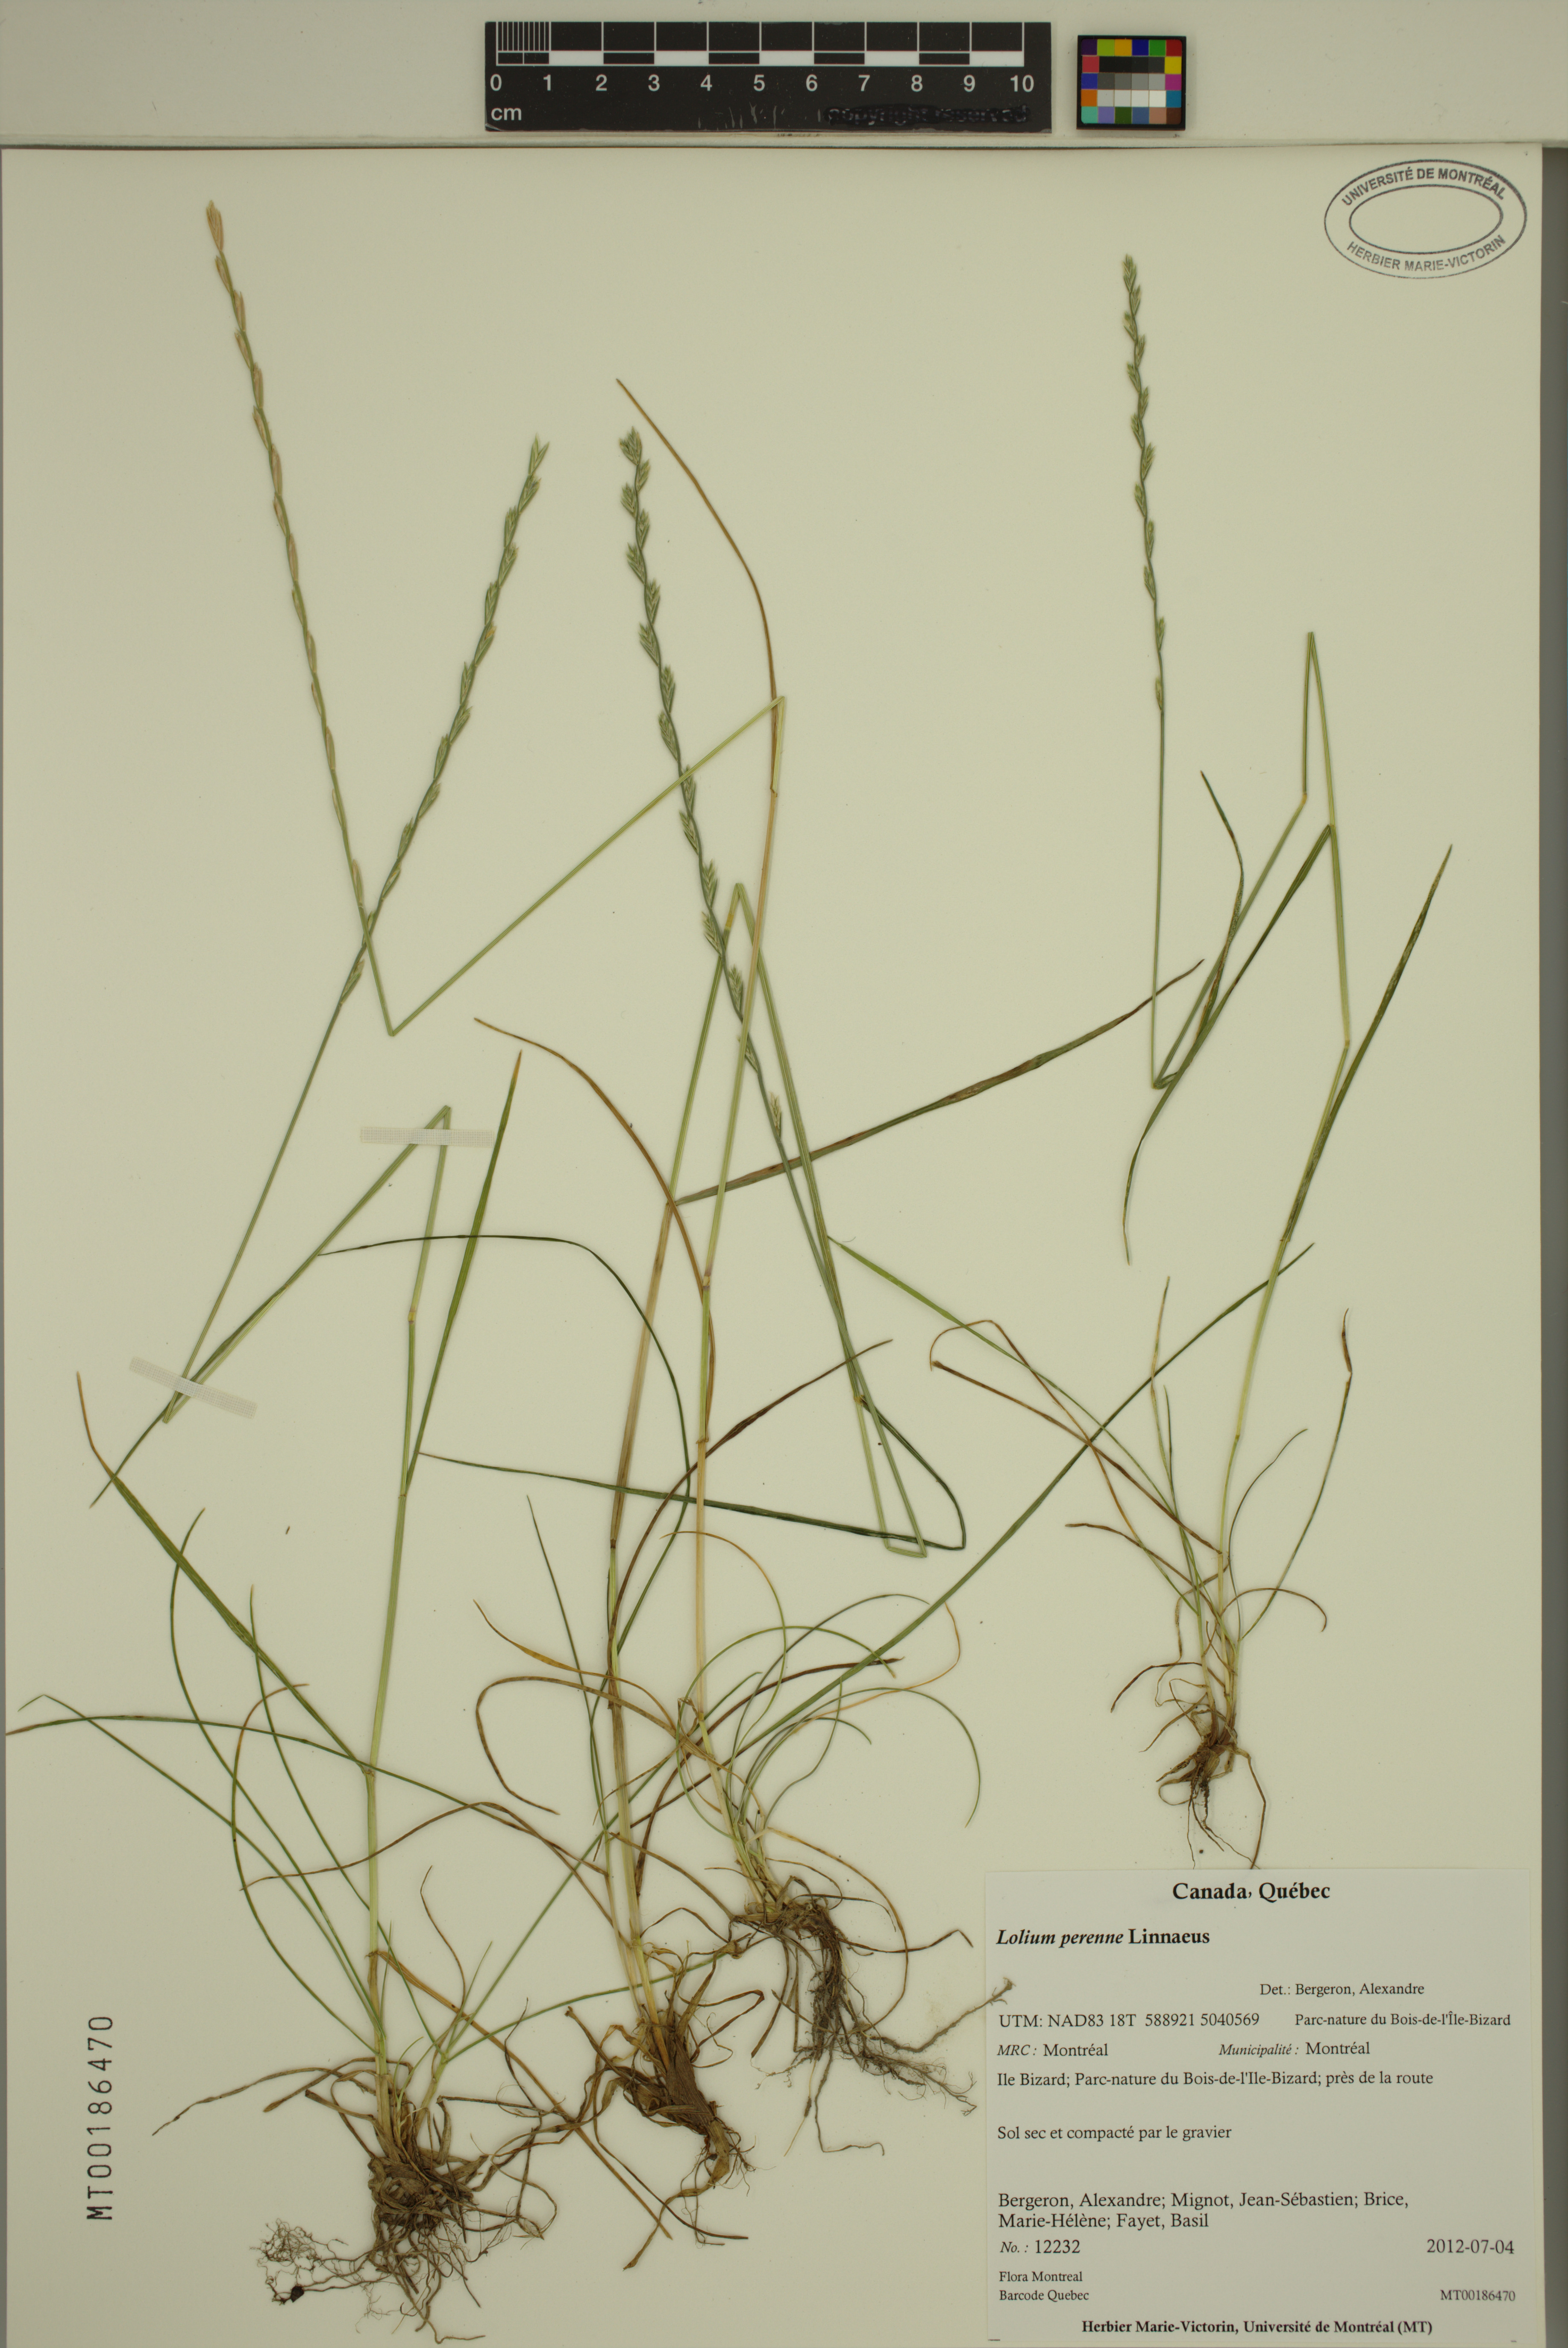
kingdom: Plantae
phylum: Tracheophyta
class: Liliopsida
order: Poales
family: Poaceae
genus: Lolium
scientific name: Lolium perenne
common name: Perennial ryegrass
